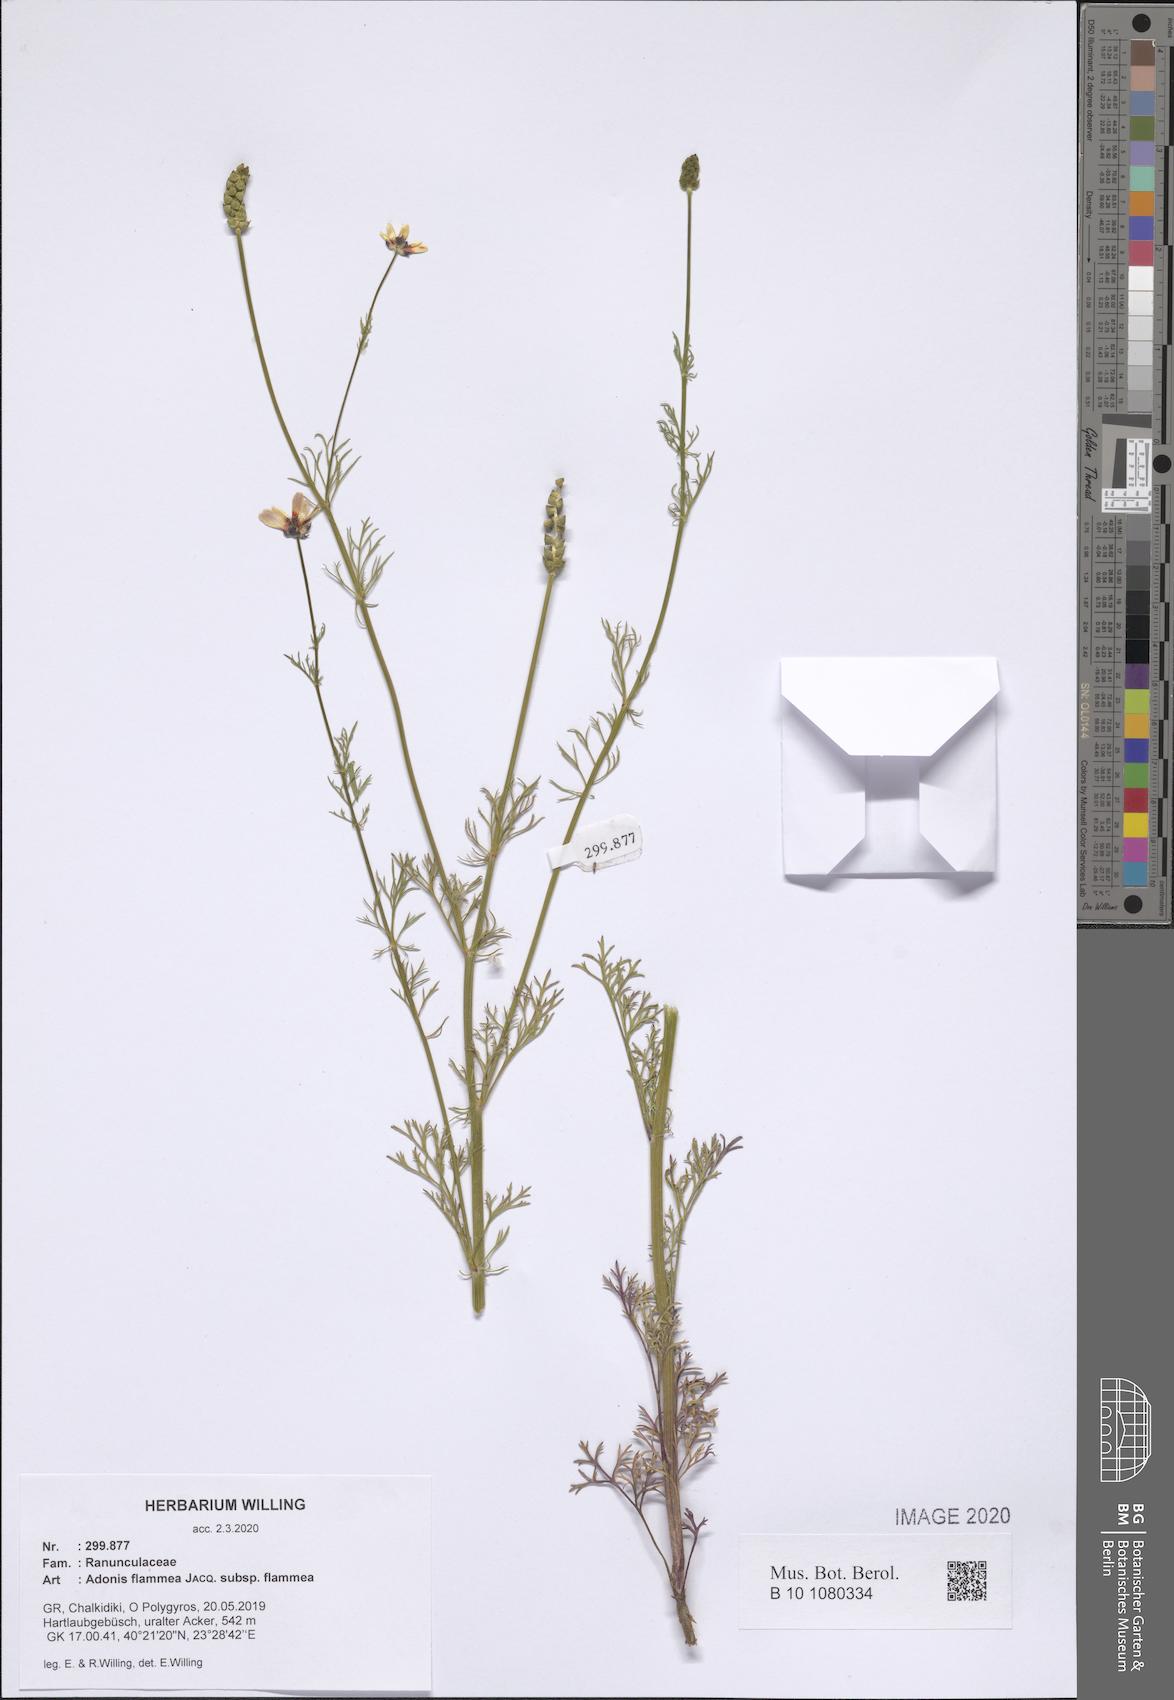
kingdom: Plantae
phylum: Tracheophyta
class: Magnoliopsida
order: Ranunculales
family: Ranunculaceae
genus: Adonis
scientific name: Adonis flammea
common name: Large pheasant's-eye
